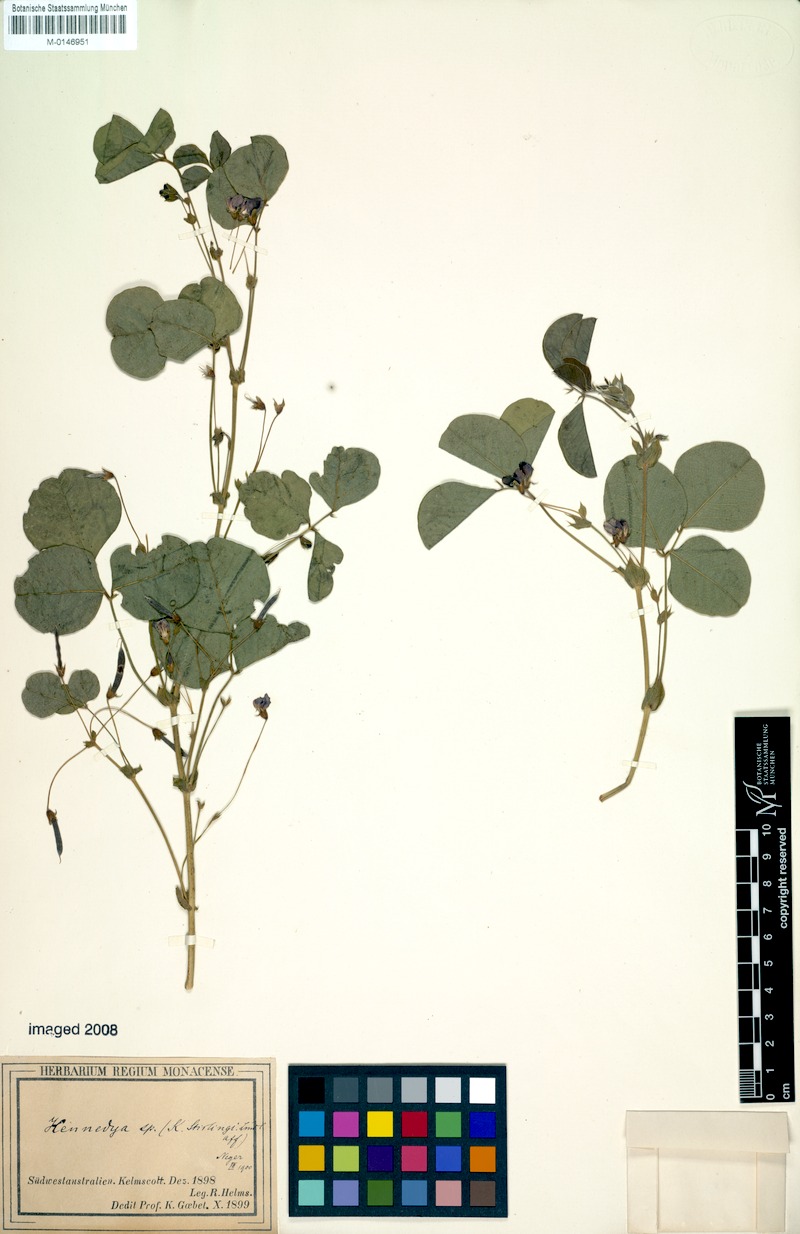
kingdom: Plantae
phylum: Tracheophyta
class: Magnoliopsida
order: Fabales
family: Fabaceae
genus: Kennedia
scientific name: Kennedia
